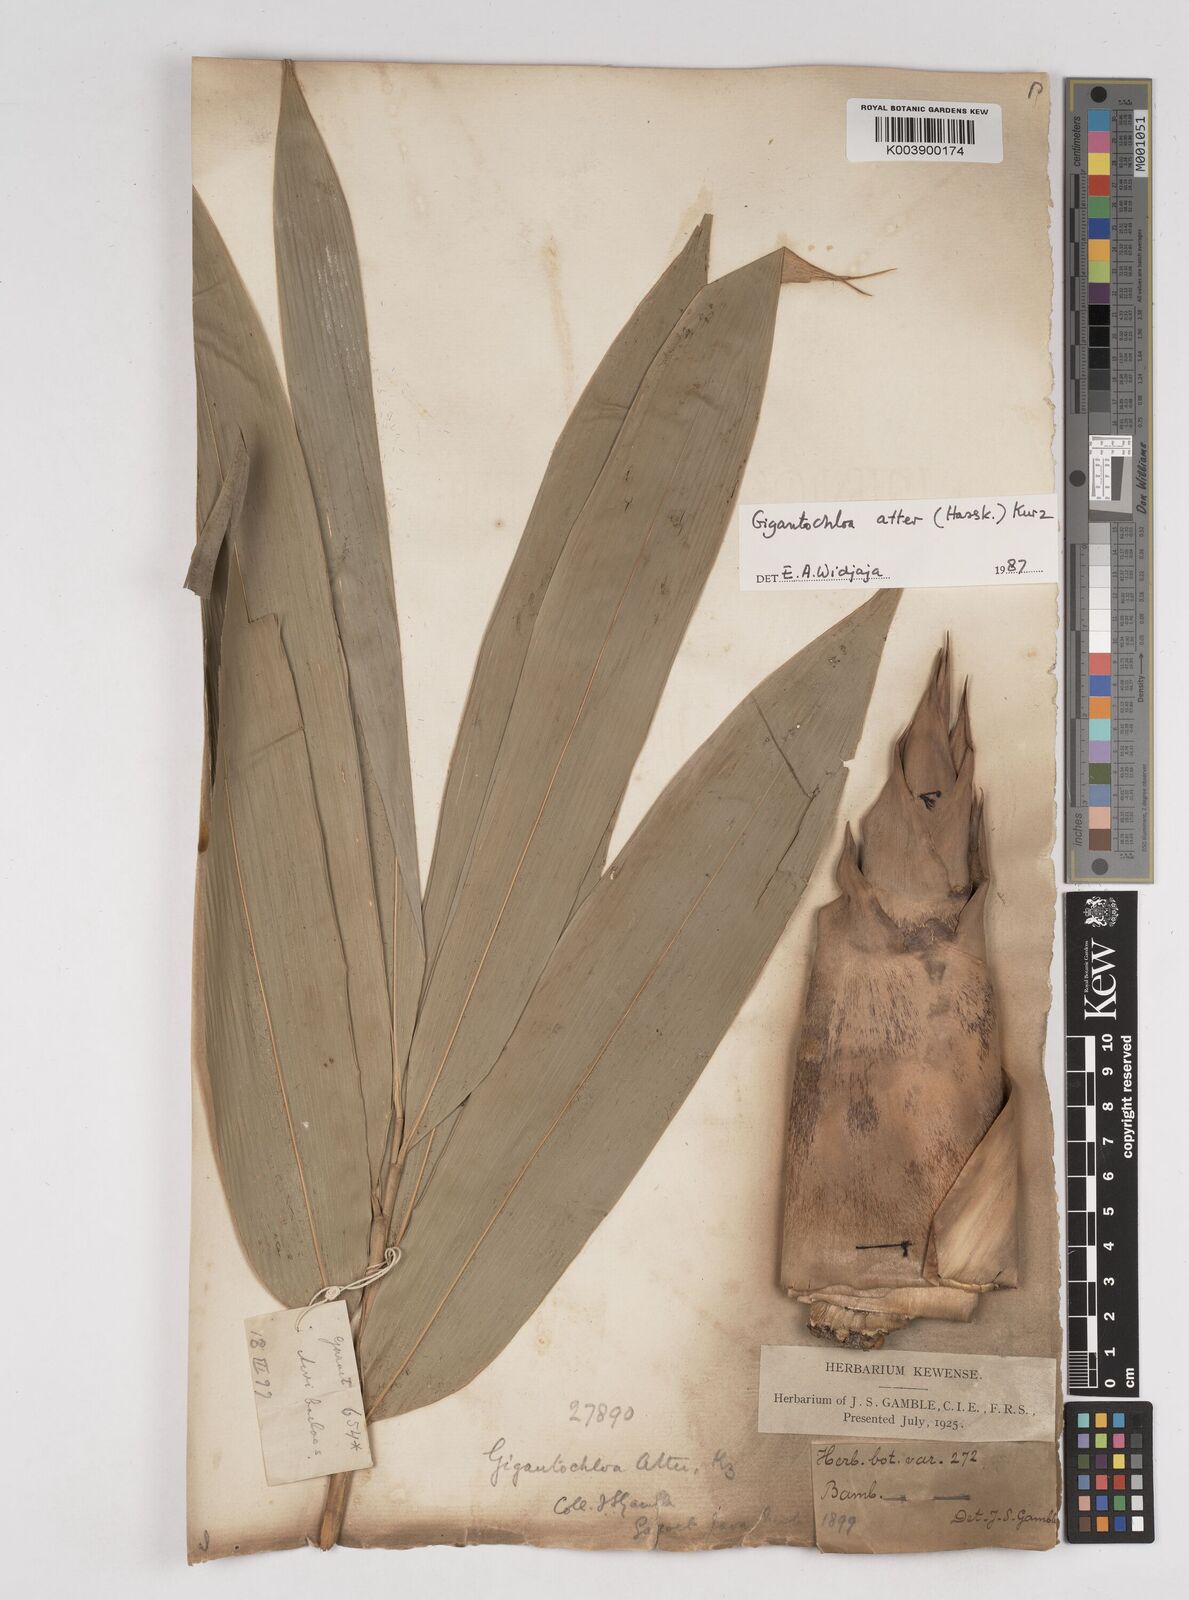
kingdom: Plantae
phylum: Tracheophyta
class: Liliopsida
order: Poales
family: Poaceae
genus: Gigantochloa
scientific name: Gigantochloa atter
